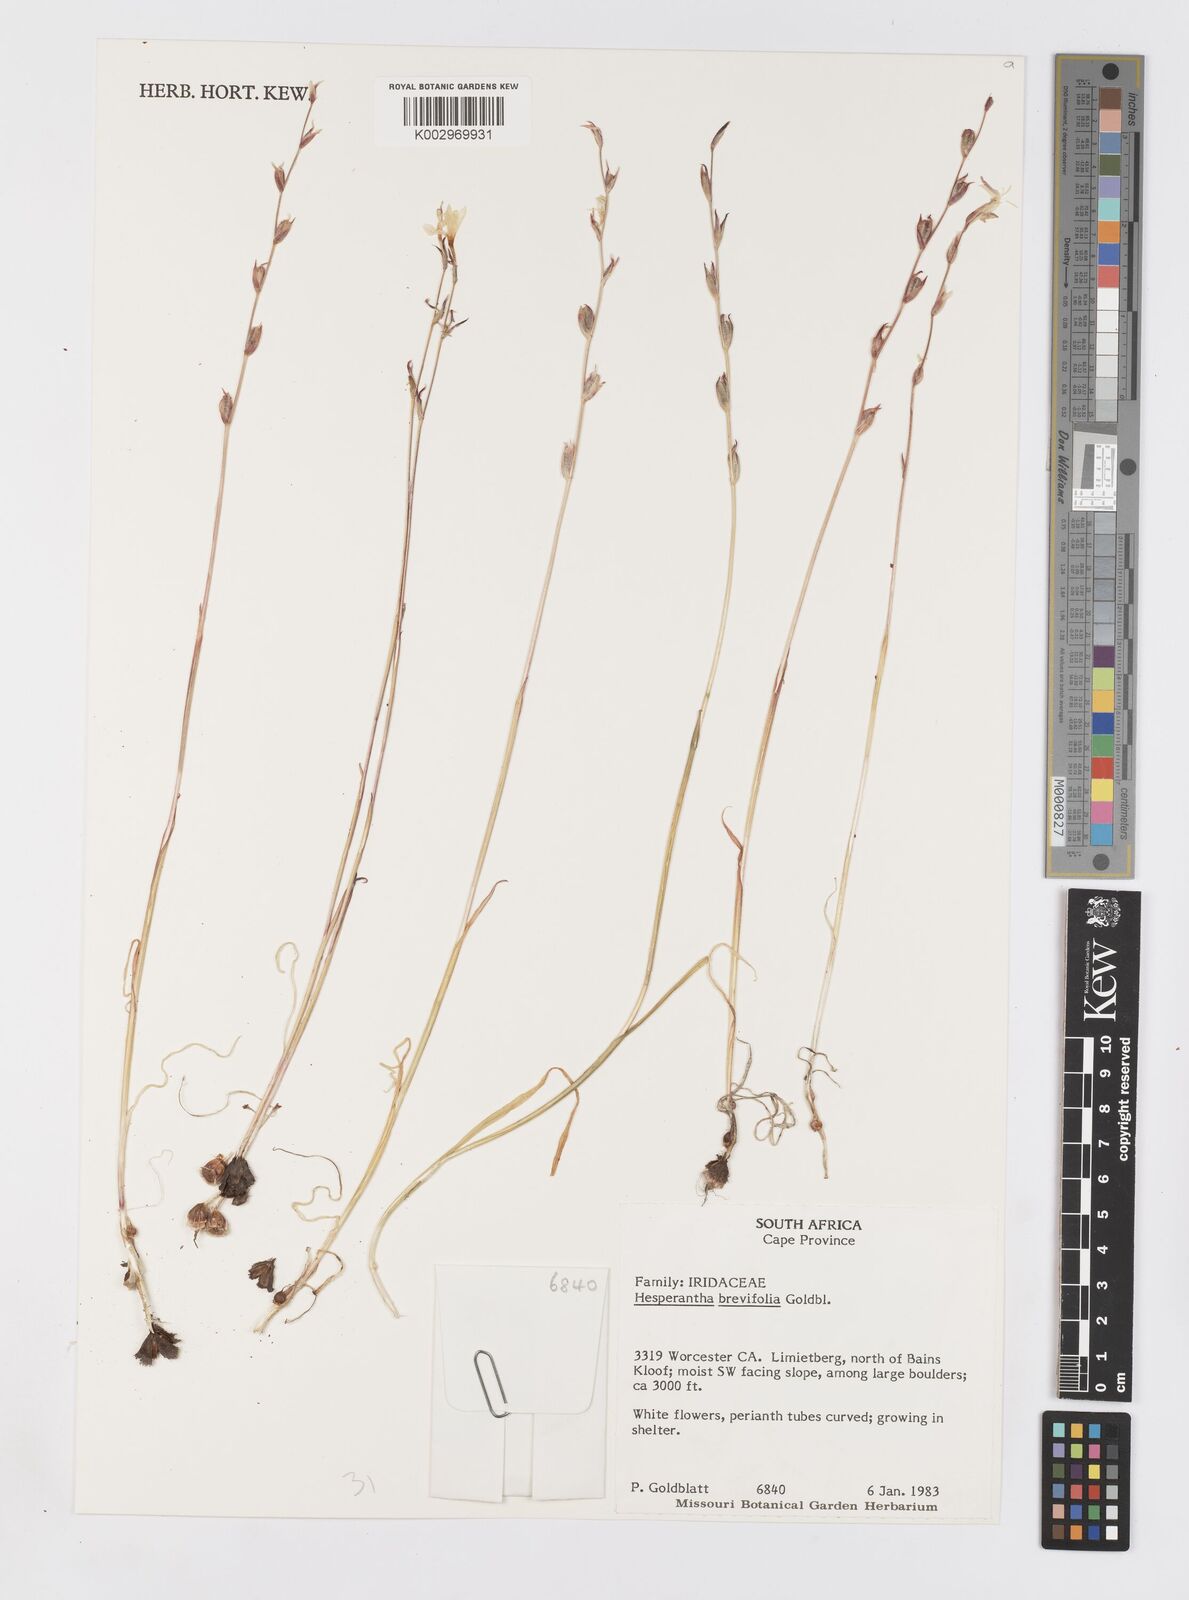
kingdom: Plantae
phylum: Tracheophyta
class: Liliopsida
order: Asparagales
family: Iridaceae
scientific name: Iridaceae
